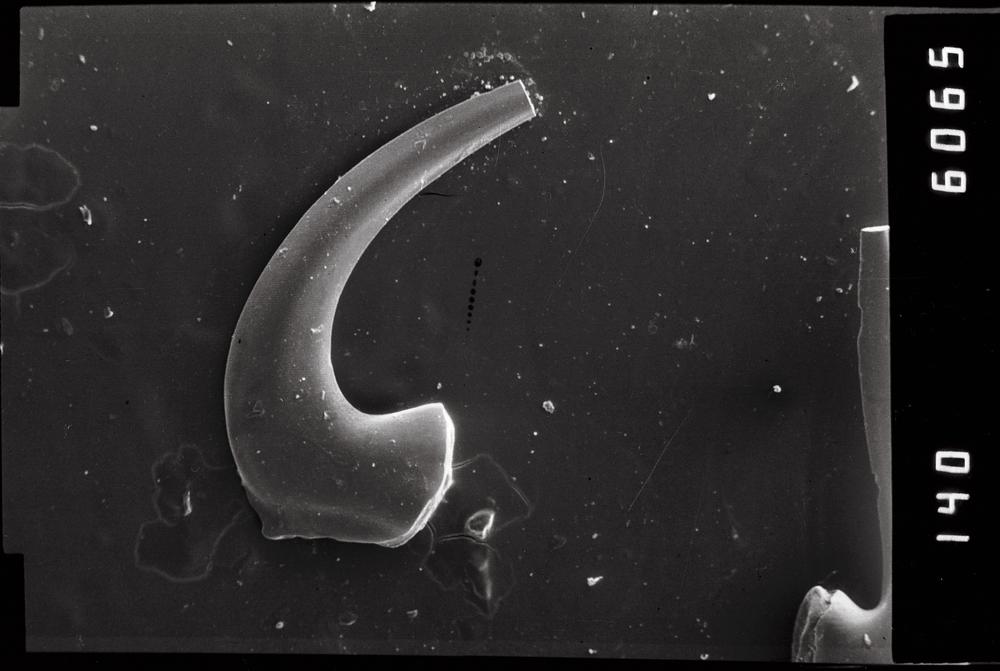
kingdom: Animalia
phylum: Chordata
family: Acodontidae
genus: Acodus
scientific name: Acodus similaris
